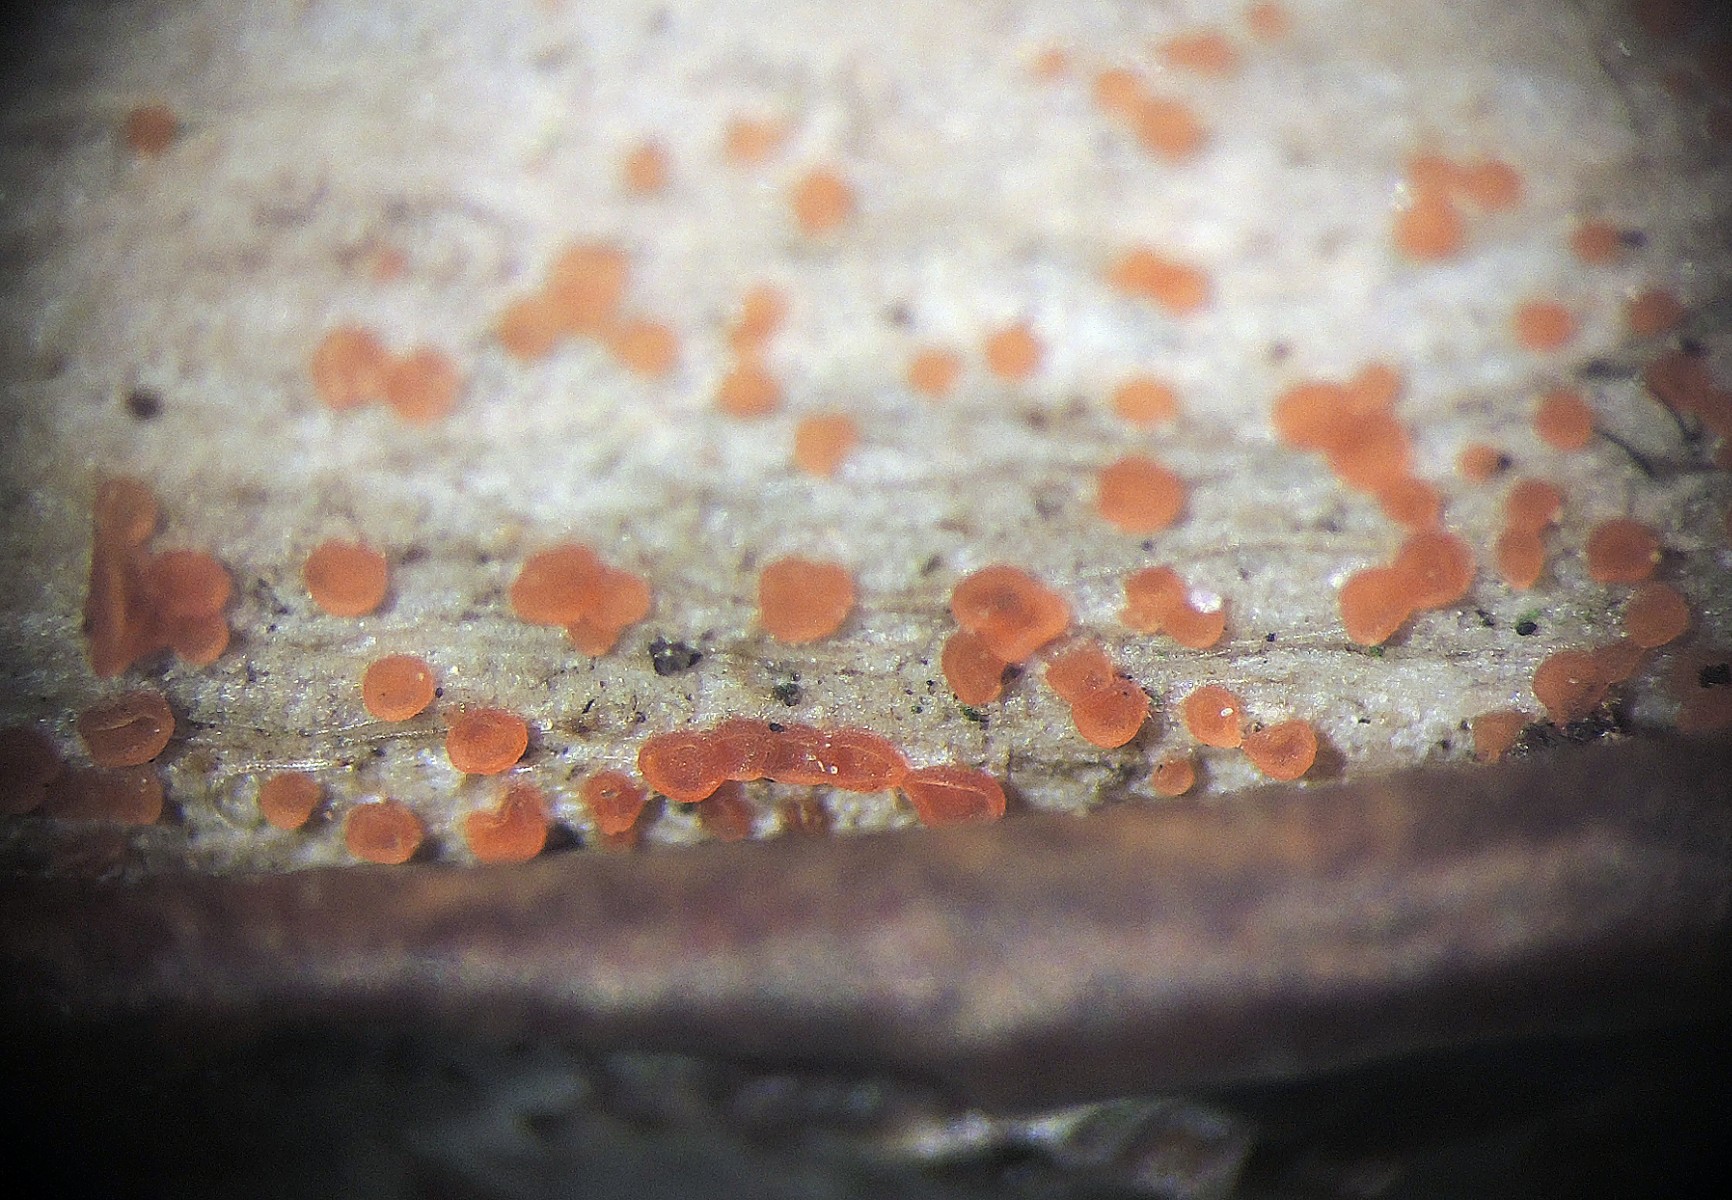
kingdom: Fungi
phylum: Ascomycota
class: Orbiliomycetes
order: Orbiliales
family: Orbiliaceae
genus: Orbilia
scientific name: Orbilia eucalypti
